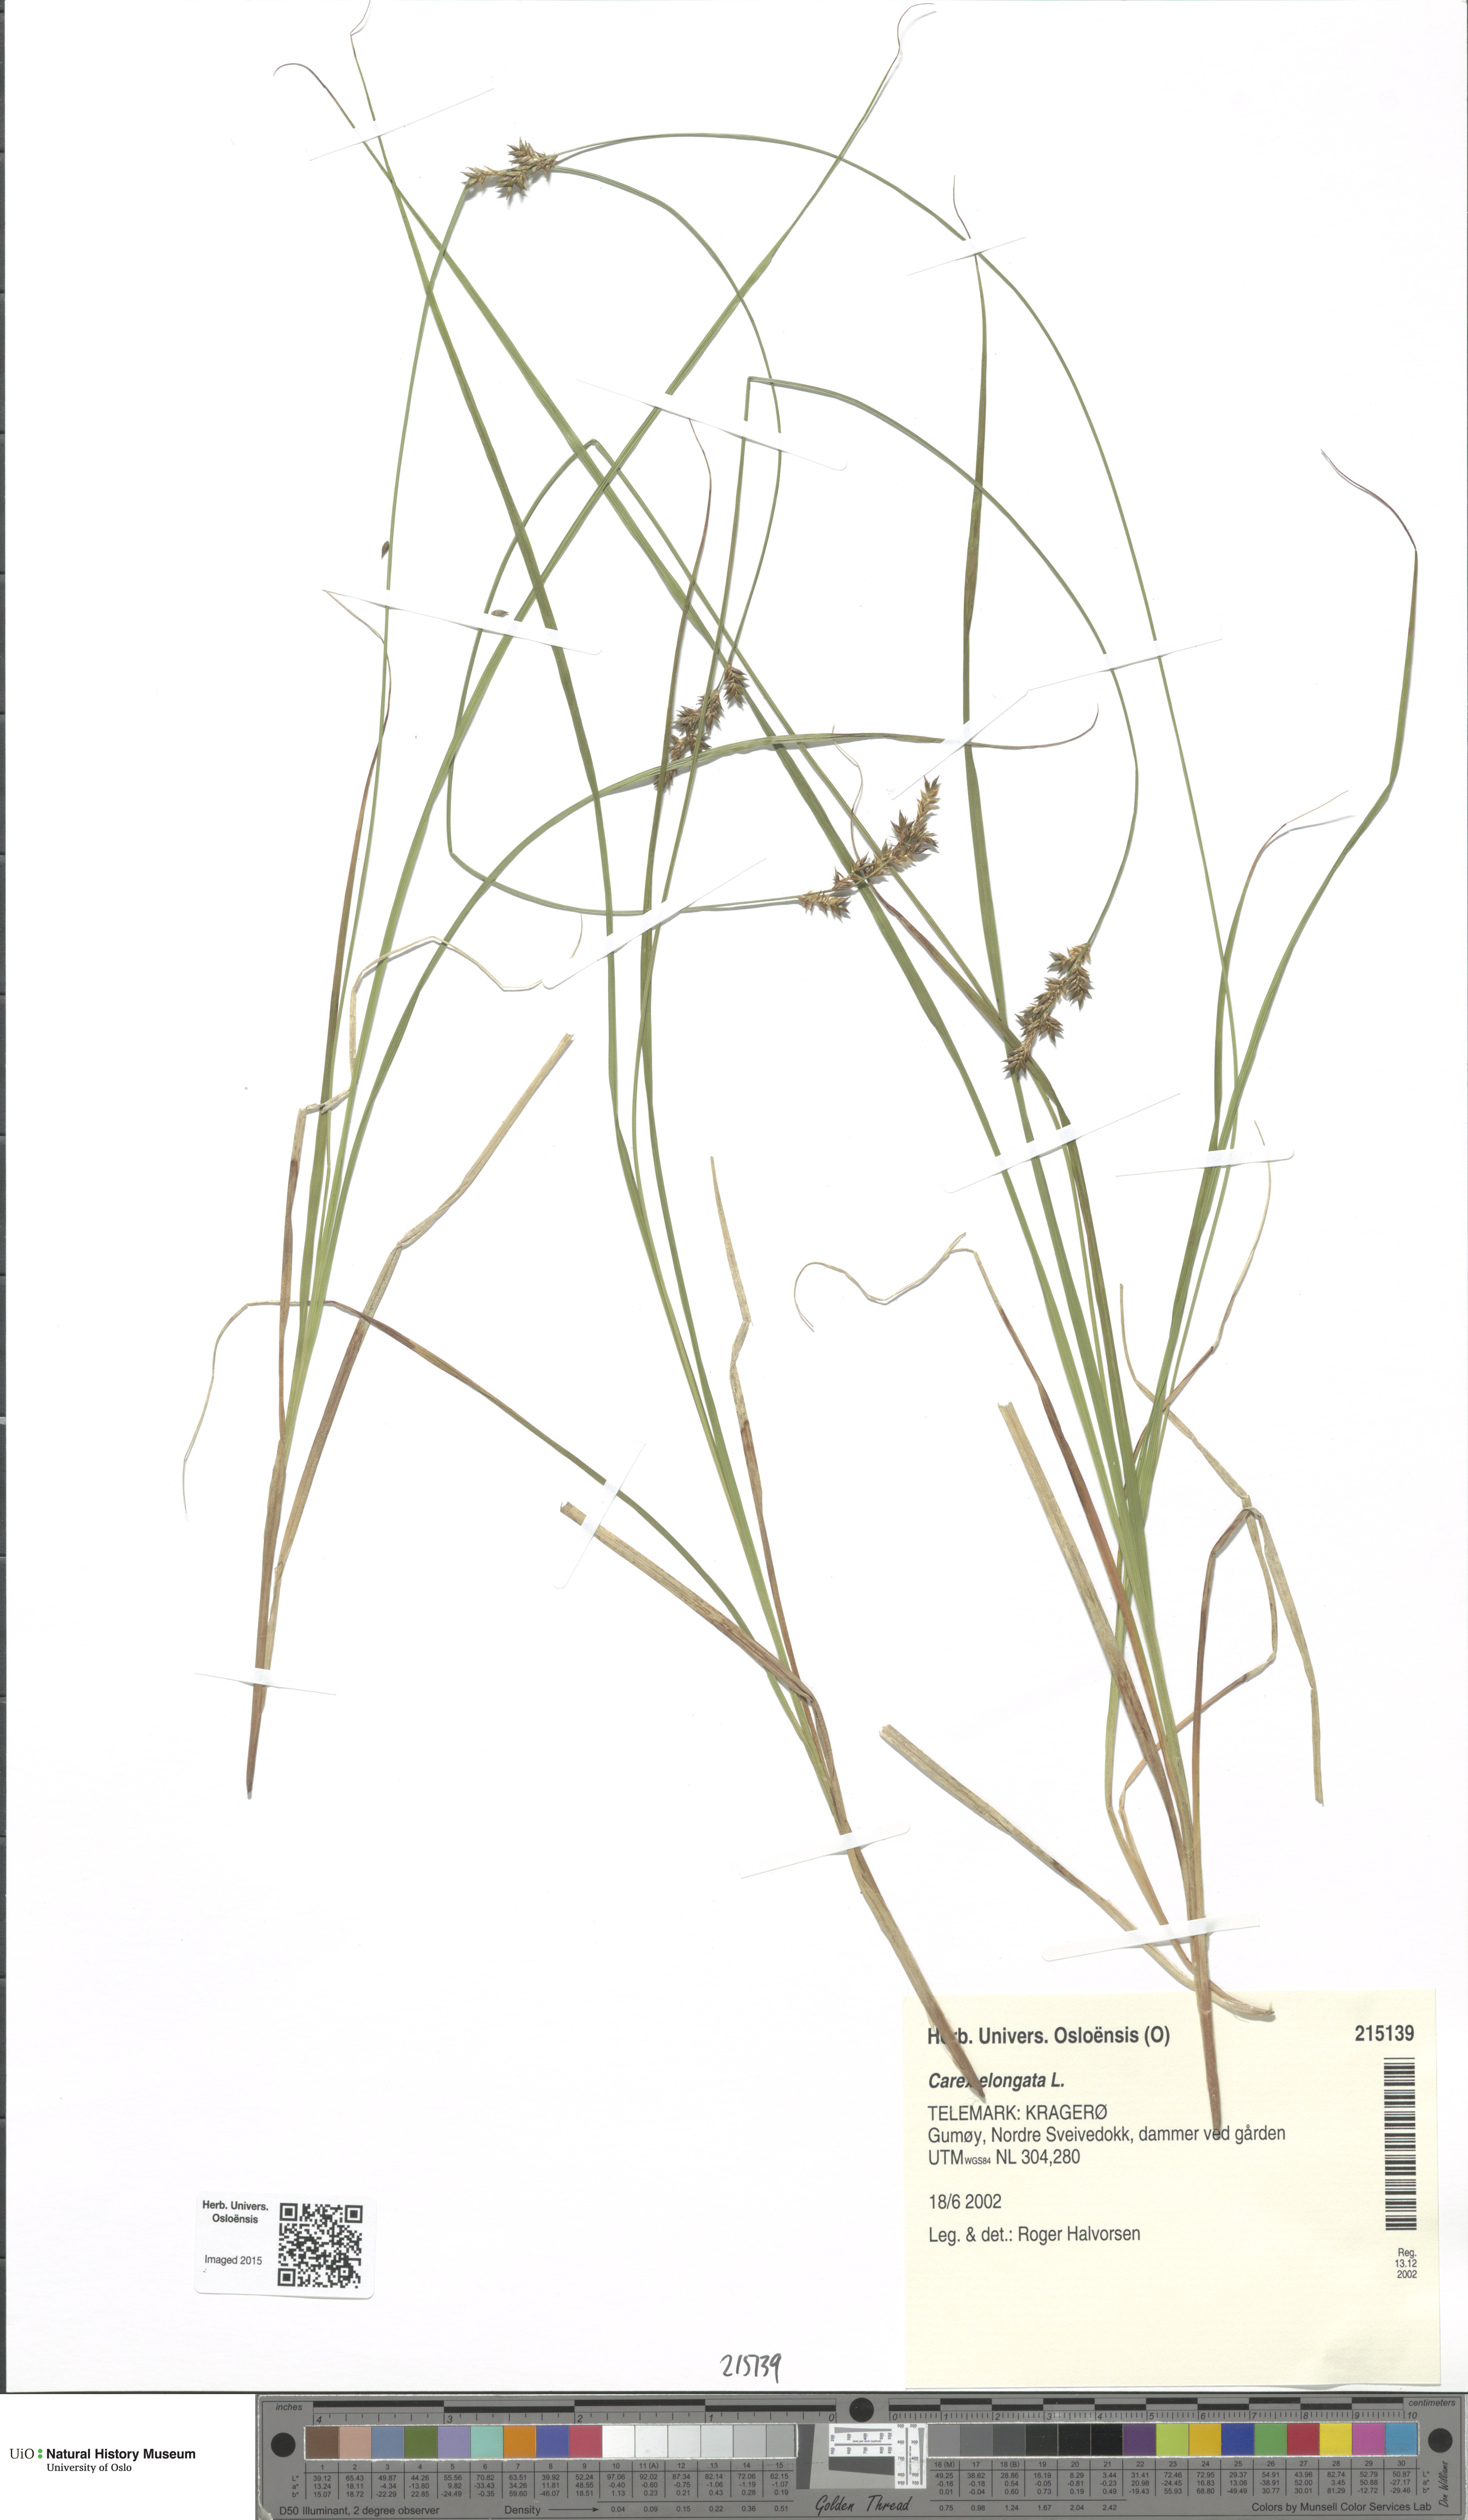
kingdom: Plantae
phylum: Tracheophyta
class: Liliopsida
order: Poales
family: Cyperaceae
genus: Carex
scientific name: Carex elongata
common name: Elongated sedge
